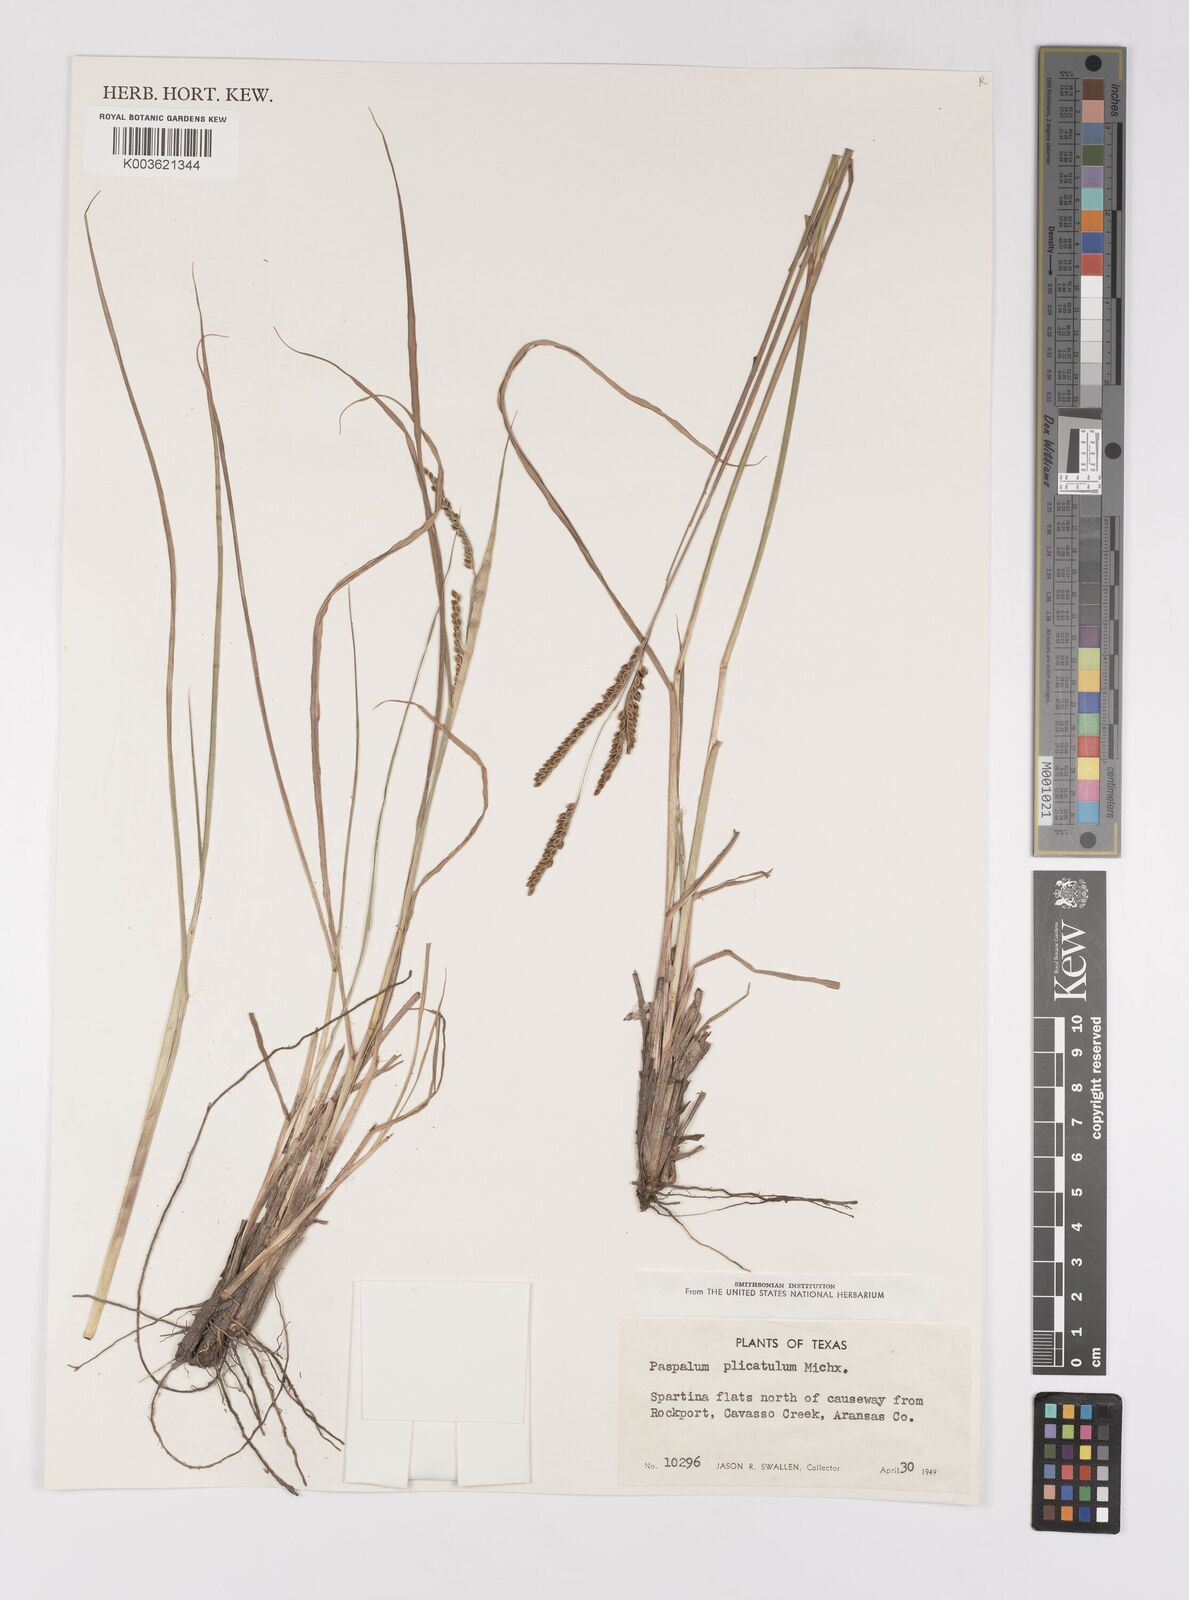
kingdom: Plantae
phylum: Tracheophyta
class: Liliopsida
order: Poales
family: Poaceae
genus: Paspalum
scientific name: Paspalum plicatulum
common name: Top paspalum
